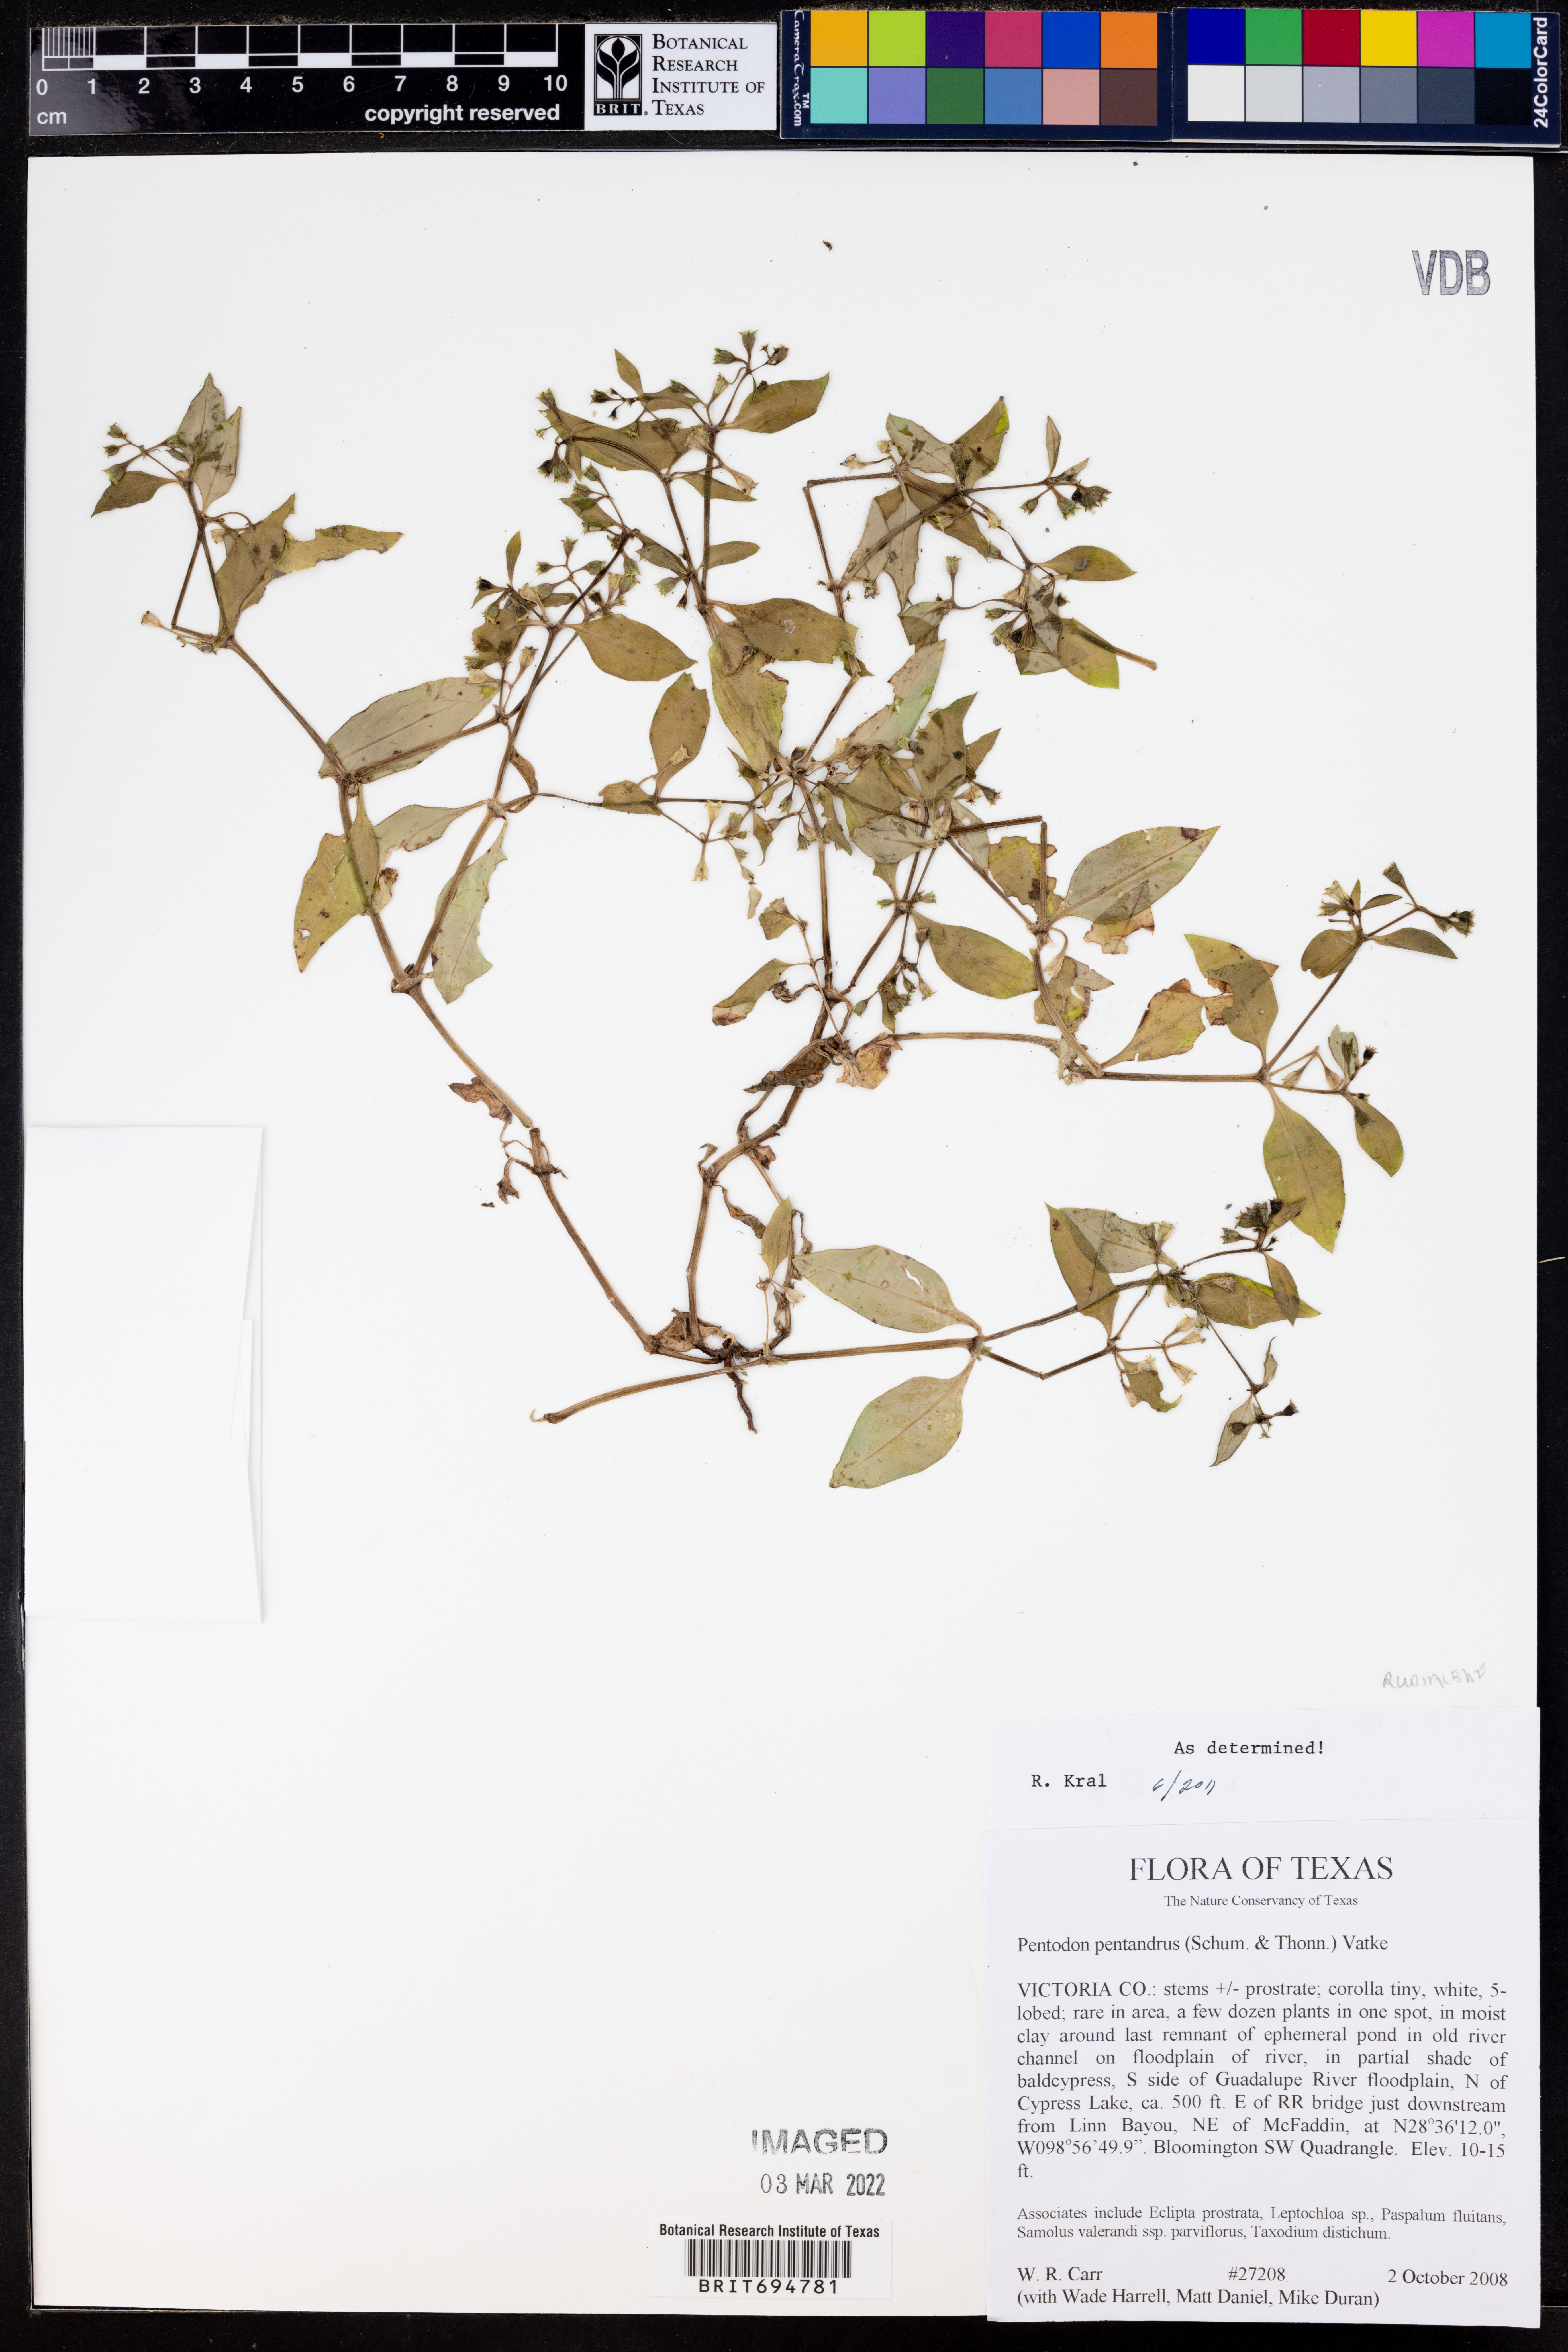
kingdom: Plantae
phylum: Tracheophyta
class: Magnoliopsida
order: Gentianales
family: Rubiaceae
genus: Pentodon
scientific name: Pentodon pentandrus
